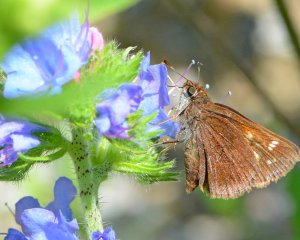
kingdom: Animalia
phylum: Arthropoda
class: Insecta
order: Lepidoptera
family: Hesperiidae
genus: Lon
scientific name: Lon hobomok
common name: Hobomok Skipper
